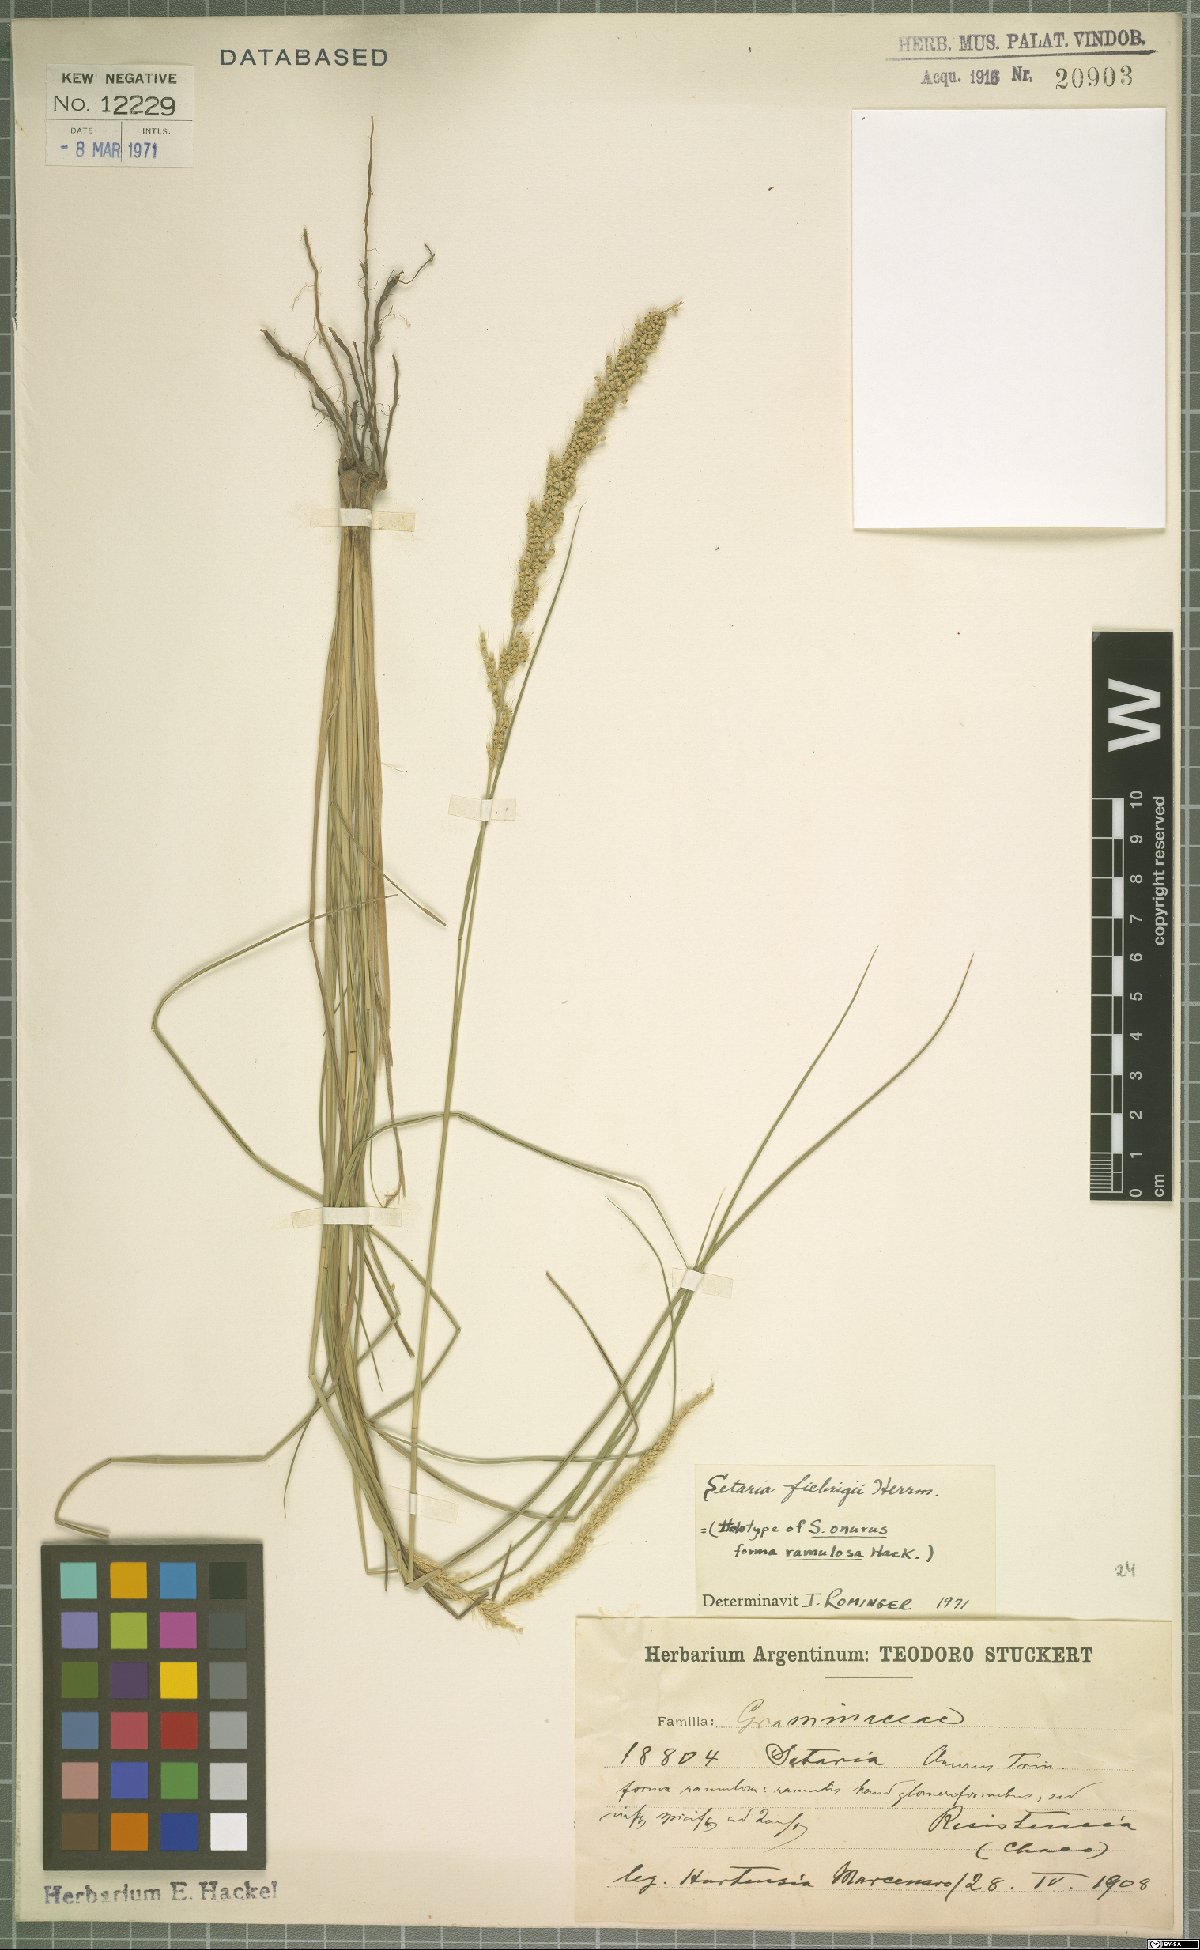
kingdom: Plantae
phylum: Tracheophyta
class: Liliopsida
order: Poales
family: Poaceae
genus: Setaria
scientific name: Setaria fiebrigii
